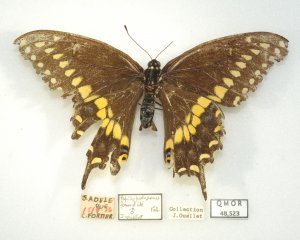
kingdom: Animalia
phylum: Arthropoda
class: Insecta
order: Lepidoptera
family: Papilionidae
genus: Papilio
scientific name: Papilio polyxenes
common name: Black Swallowtail
